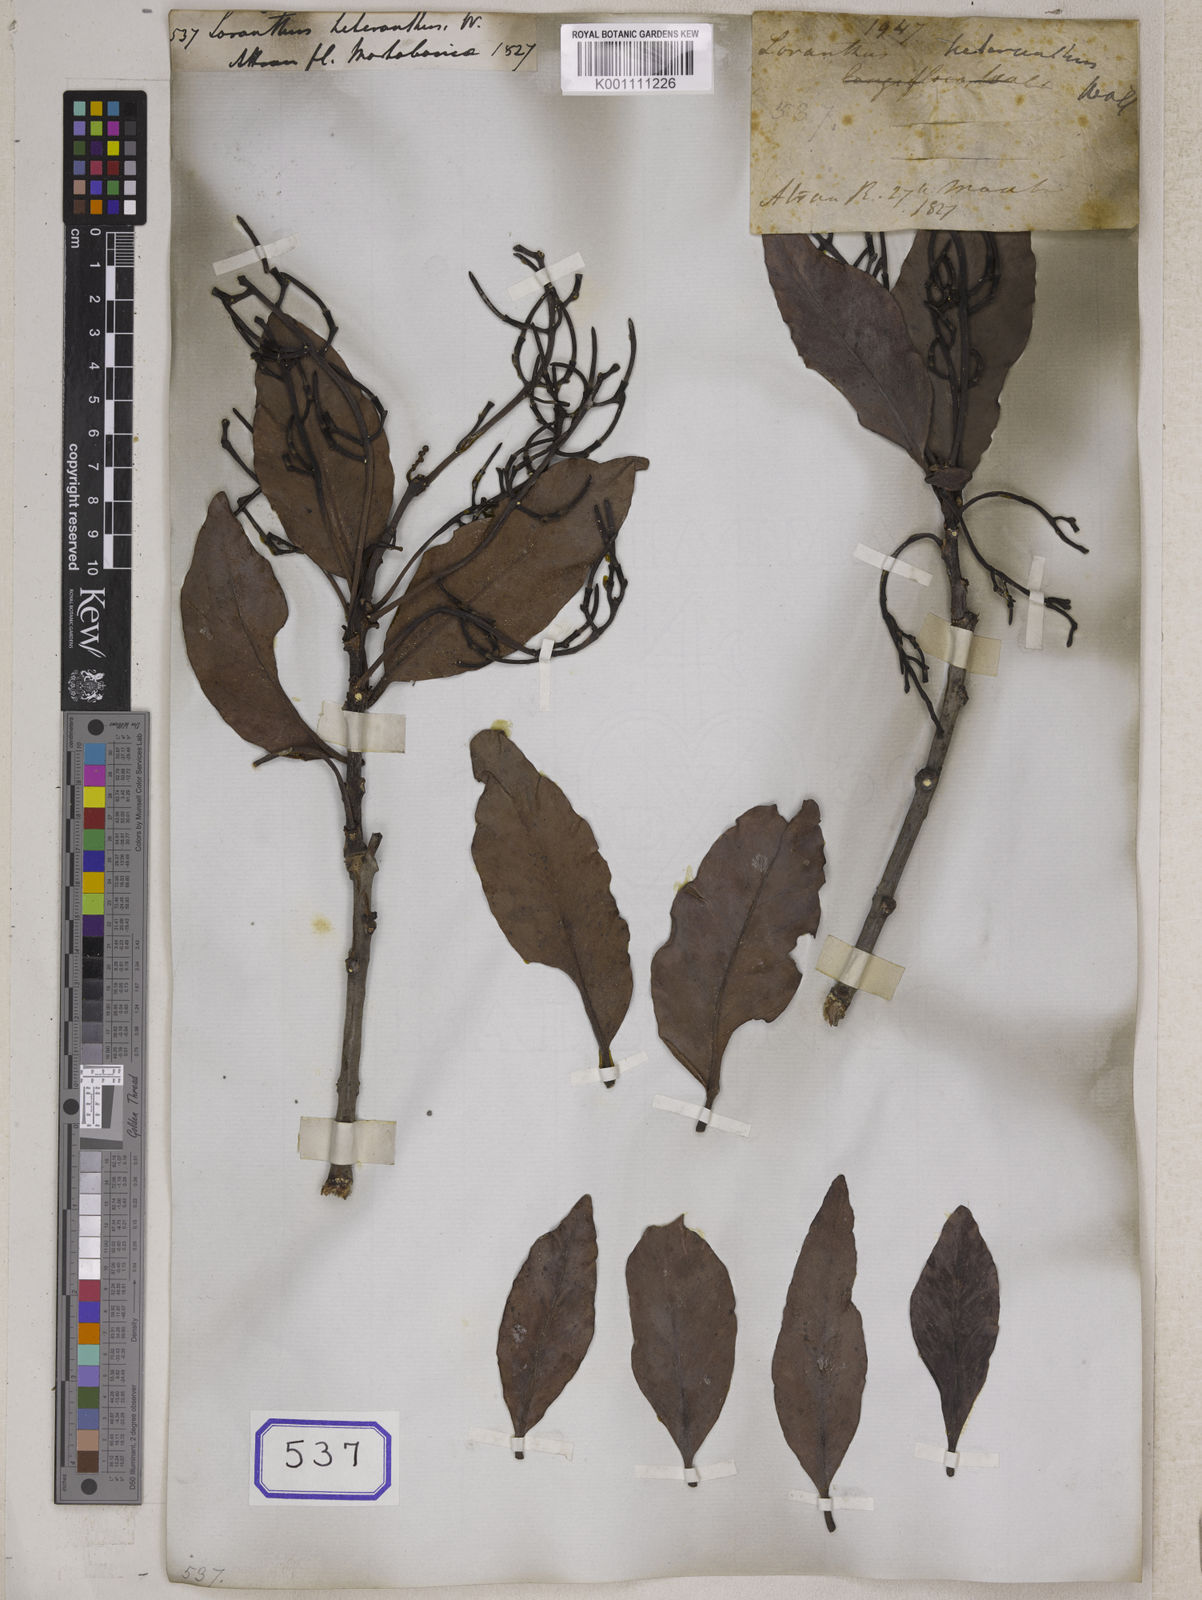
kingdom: Plantae
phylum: Tracheophyta
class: Magnoliopsida
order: Santalales
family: Loranthaceae
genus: Loranthus
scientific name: Loranthus
